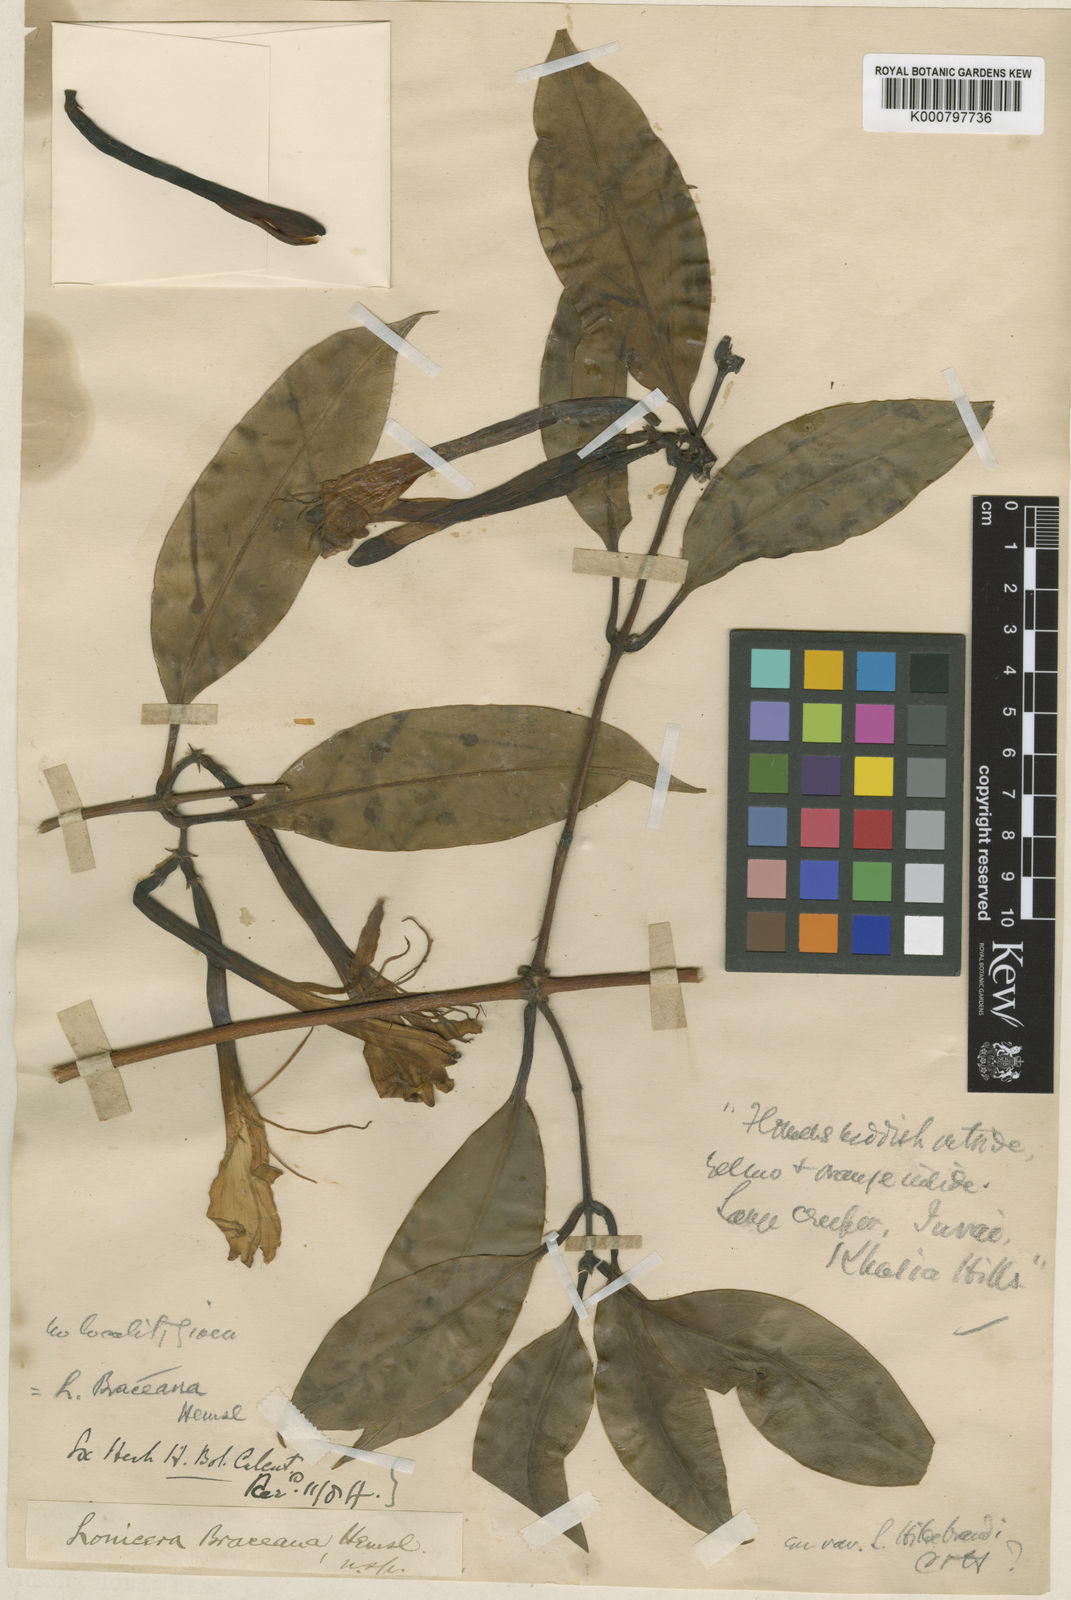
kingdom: Plantae
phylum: Tracheophyta
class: Magnoliopsida
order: Dipsacales
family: Caprifoliaceae
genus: Lonicera
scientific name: Lonicera hildebrandiana
